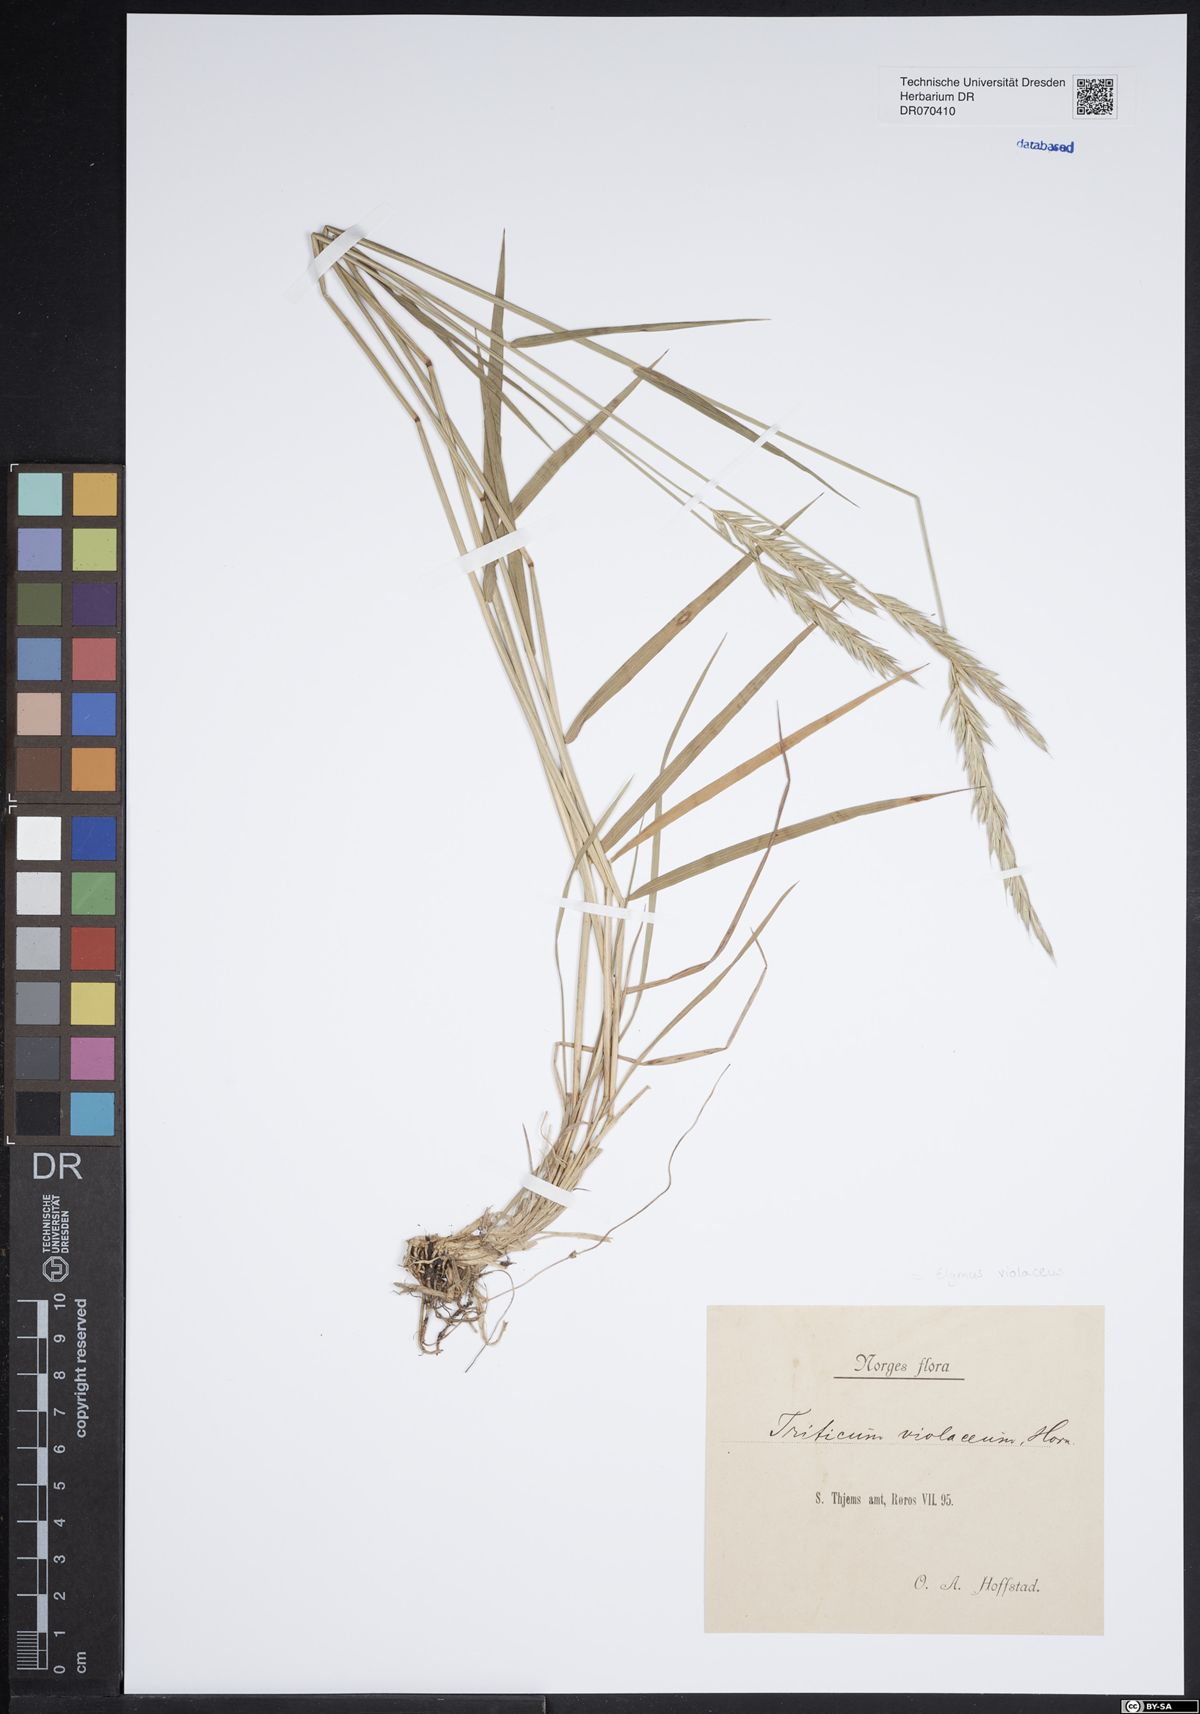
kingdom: Plantae
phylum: Tracheophyta
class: Liliopsida
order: Poales
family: Poaceae
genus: Elymus
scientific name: Elymus violaceus
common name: Arctic wheatgrass
